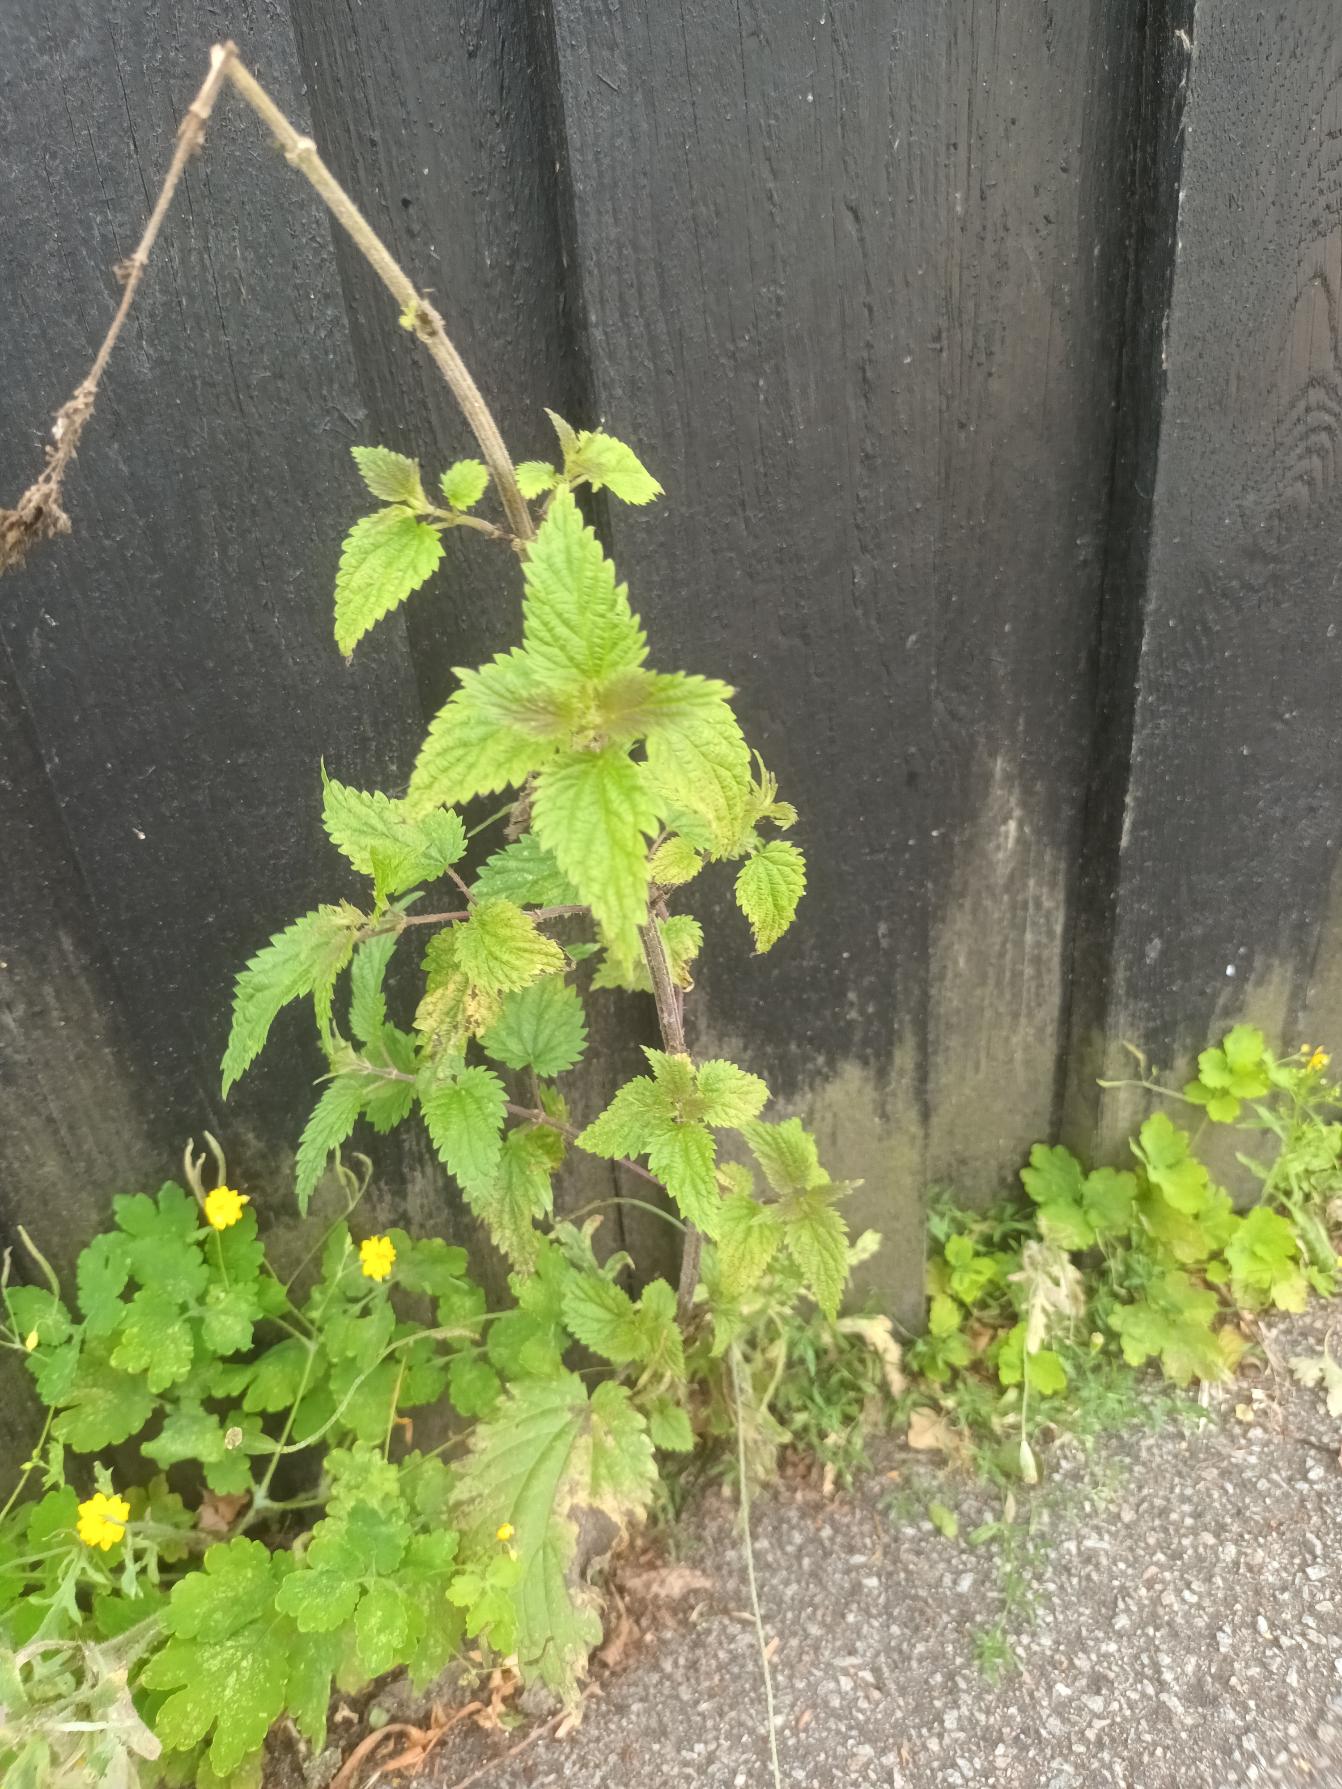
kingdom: Plantae
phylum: Tracheophyta
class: Magnoliopsida
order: Rosales
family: Urticaceae
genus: Urtica
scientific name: Urtica dioica
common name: Stor nælde
